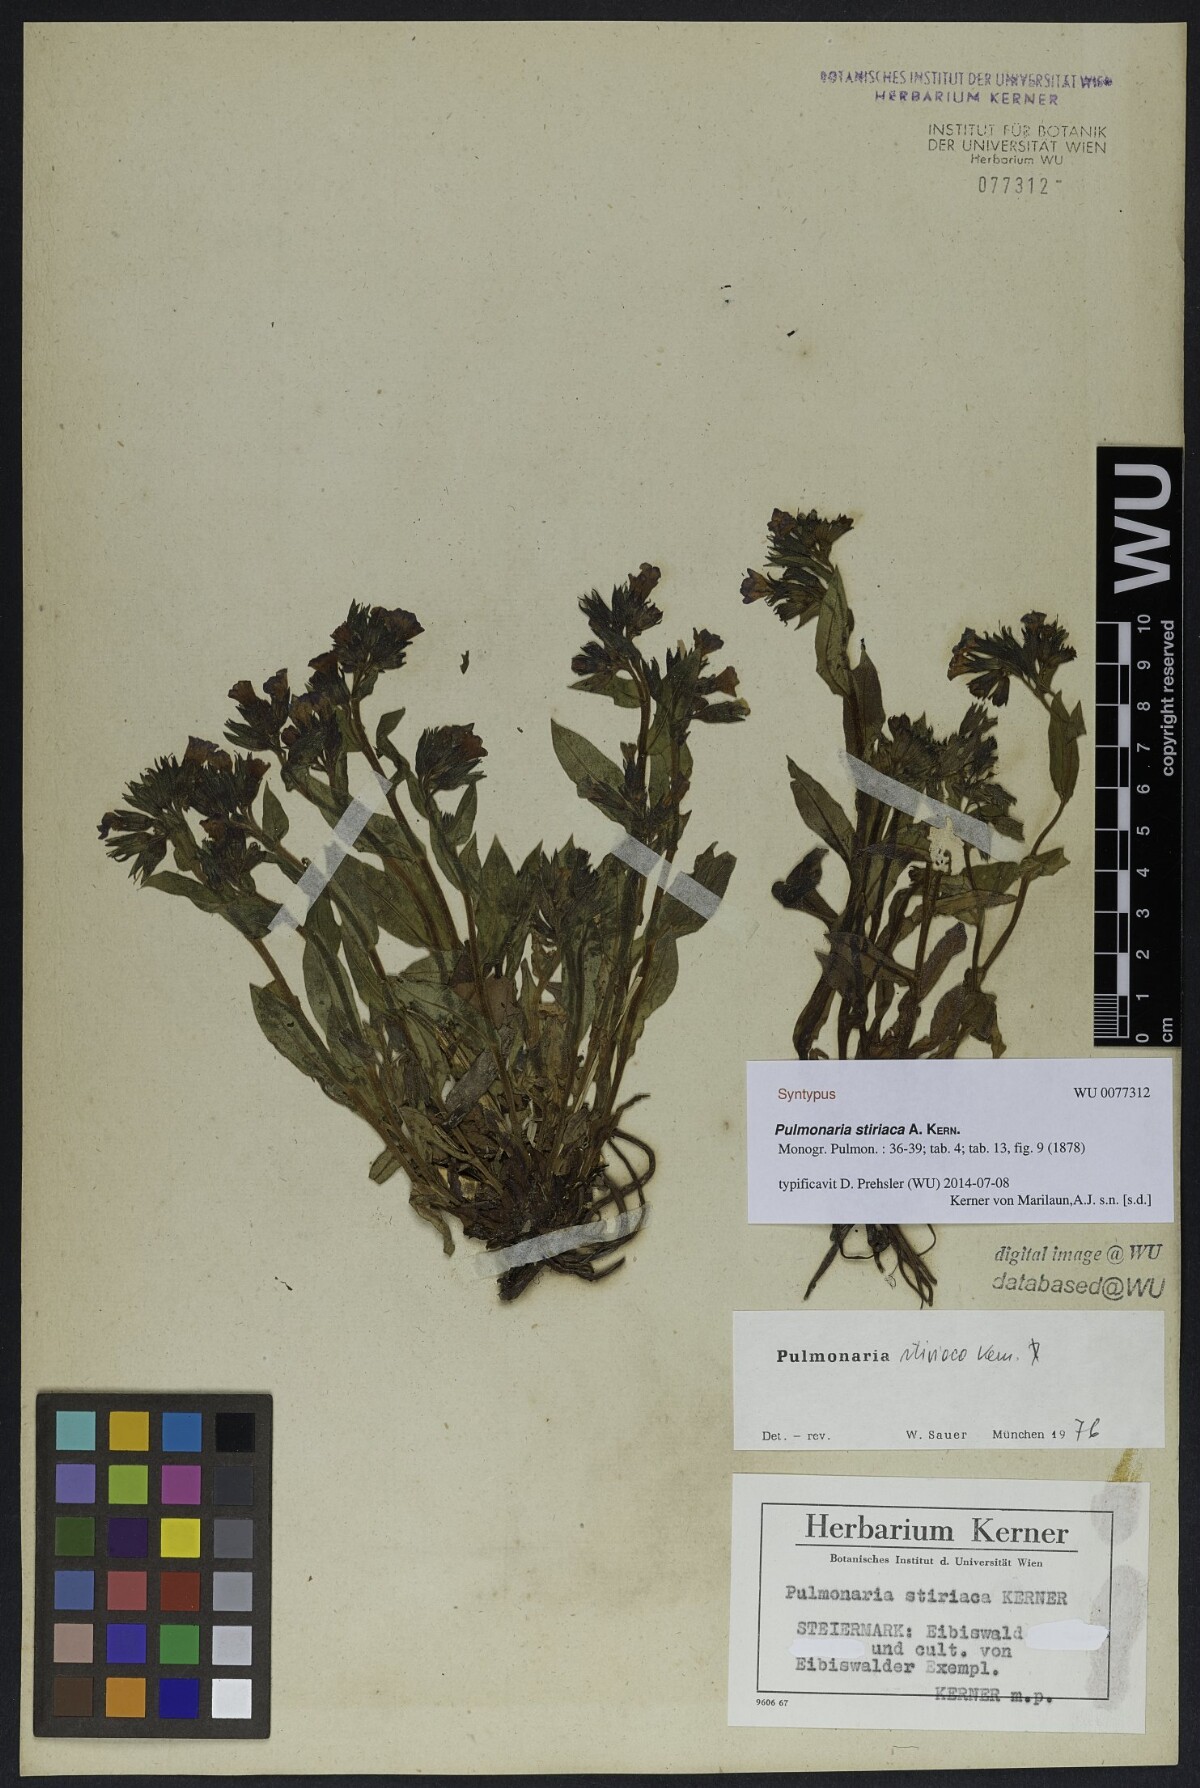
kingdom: Plantae
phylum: Tracheophyta
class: Magnoliopsida
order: Boraginales
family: Boraginaceae
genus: Pulmonaria
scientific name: Pulmonaria stiriaca
